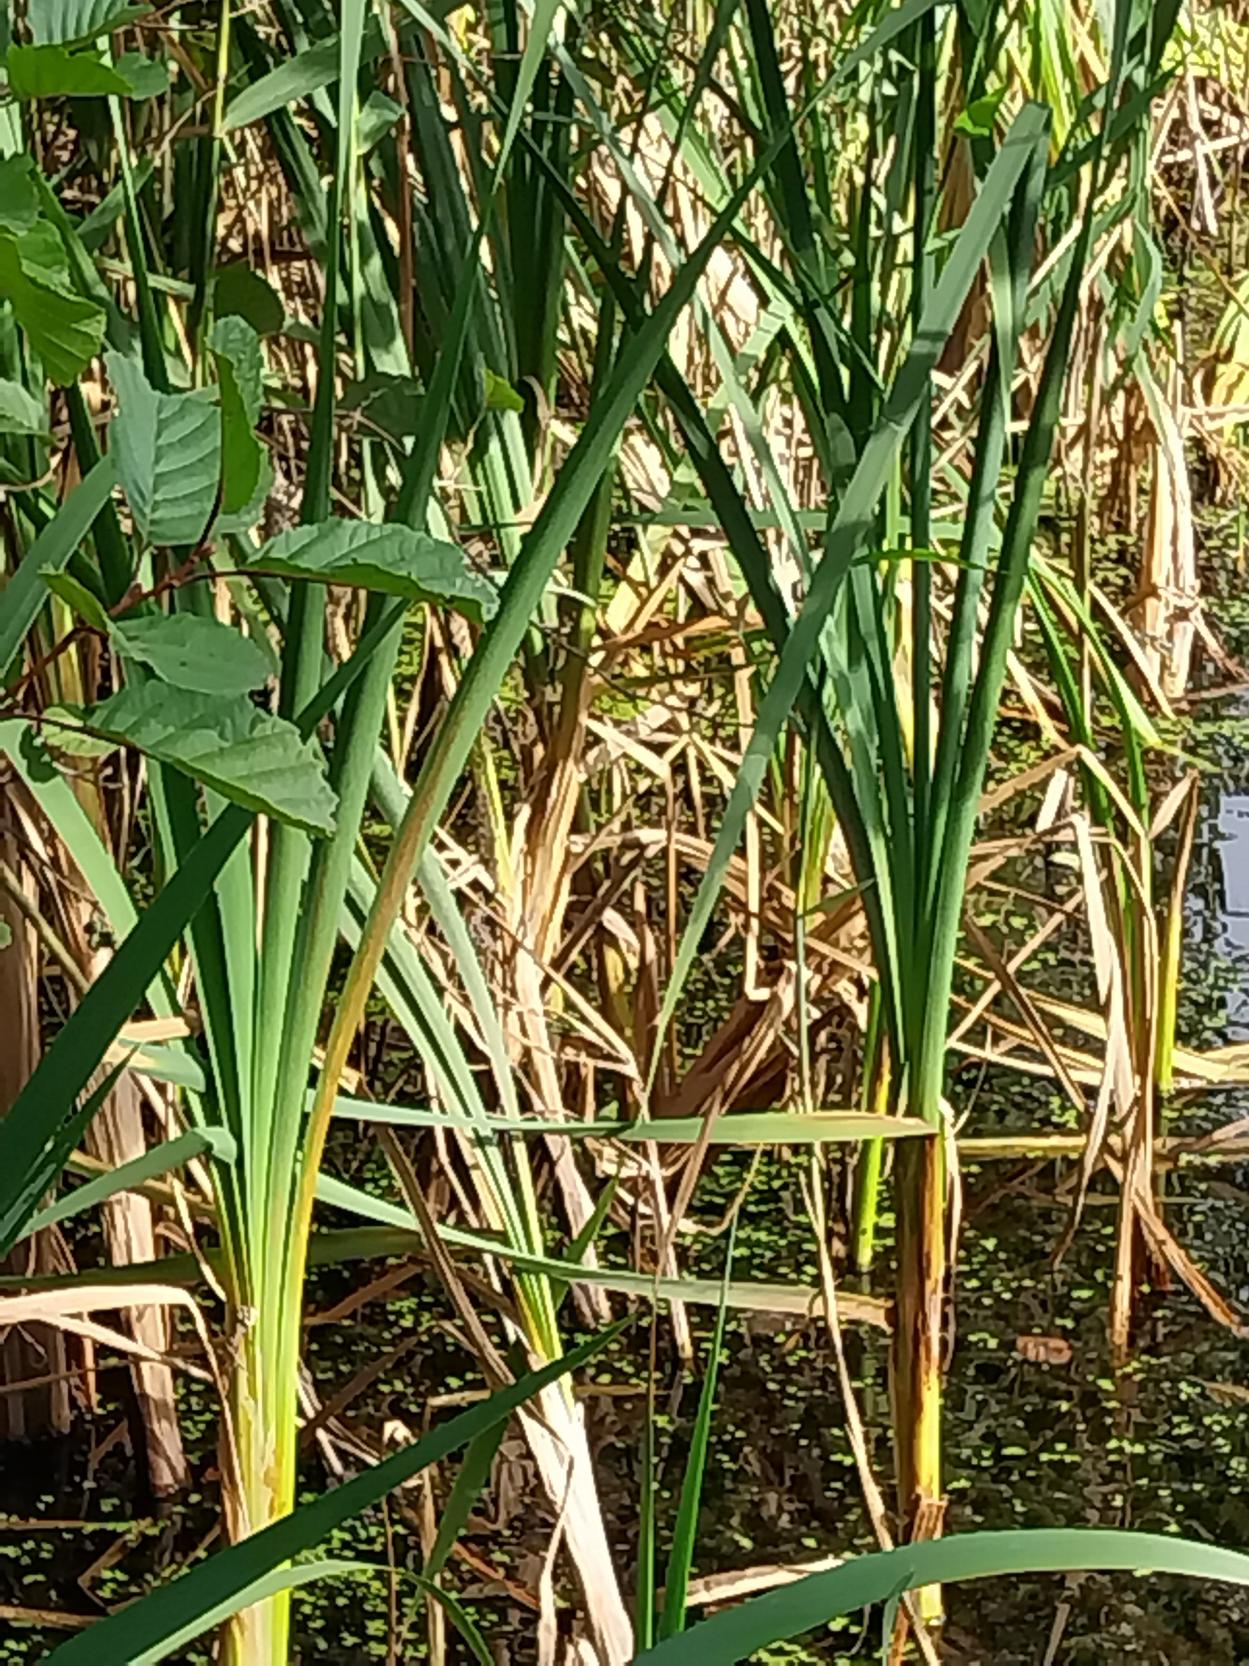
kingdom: Plantae
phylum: Tracheophyta
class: Liliopsida
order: Poales
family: Typhaceae
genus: Typha
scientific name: Typha latifolia
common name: Bredbladet dunhammer
